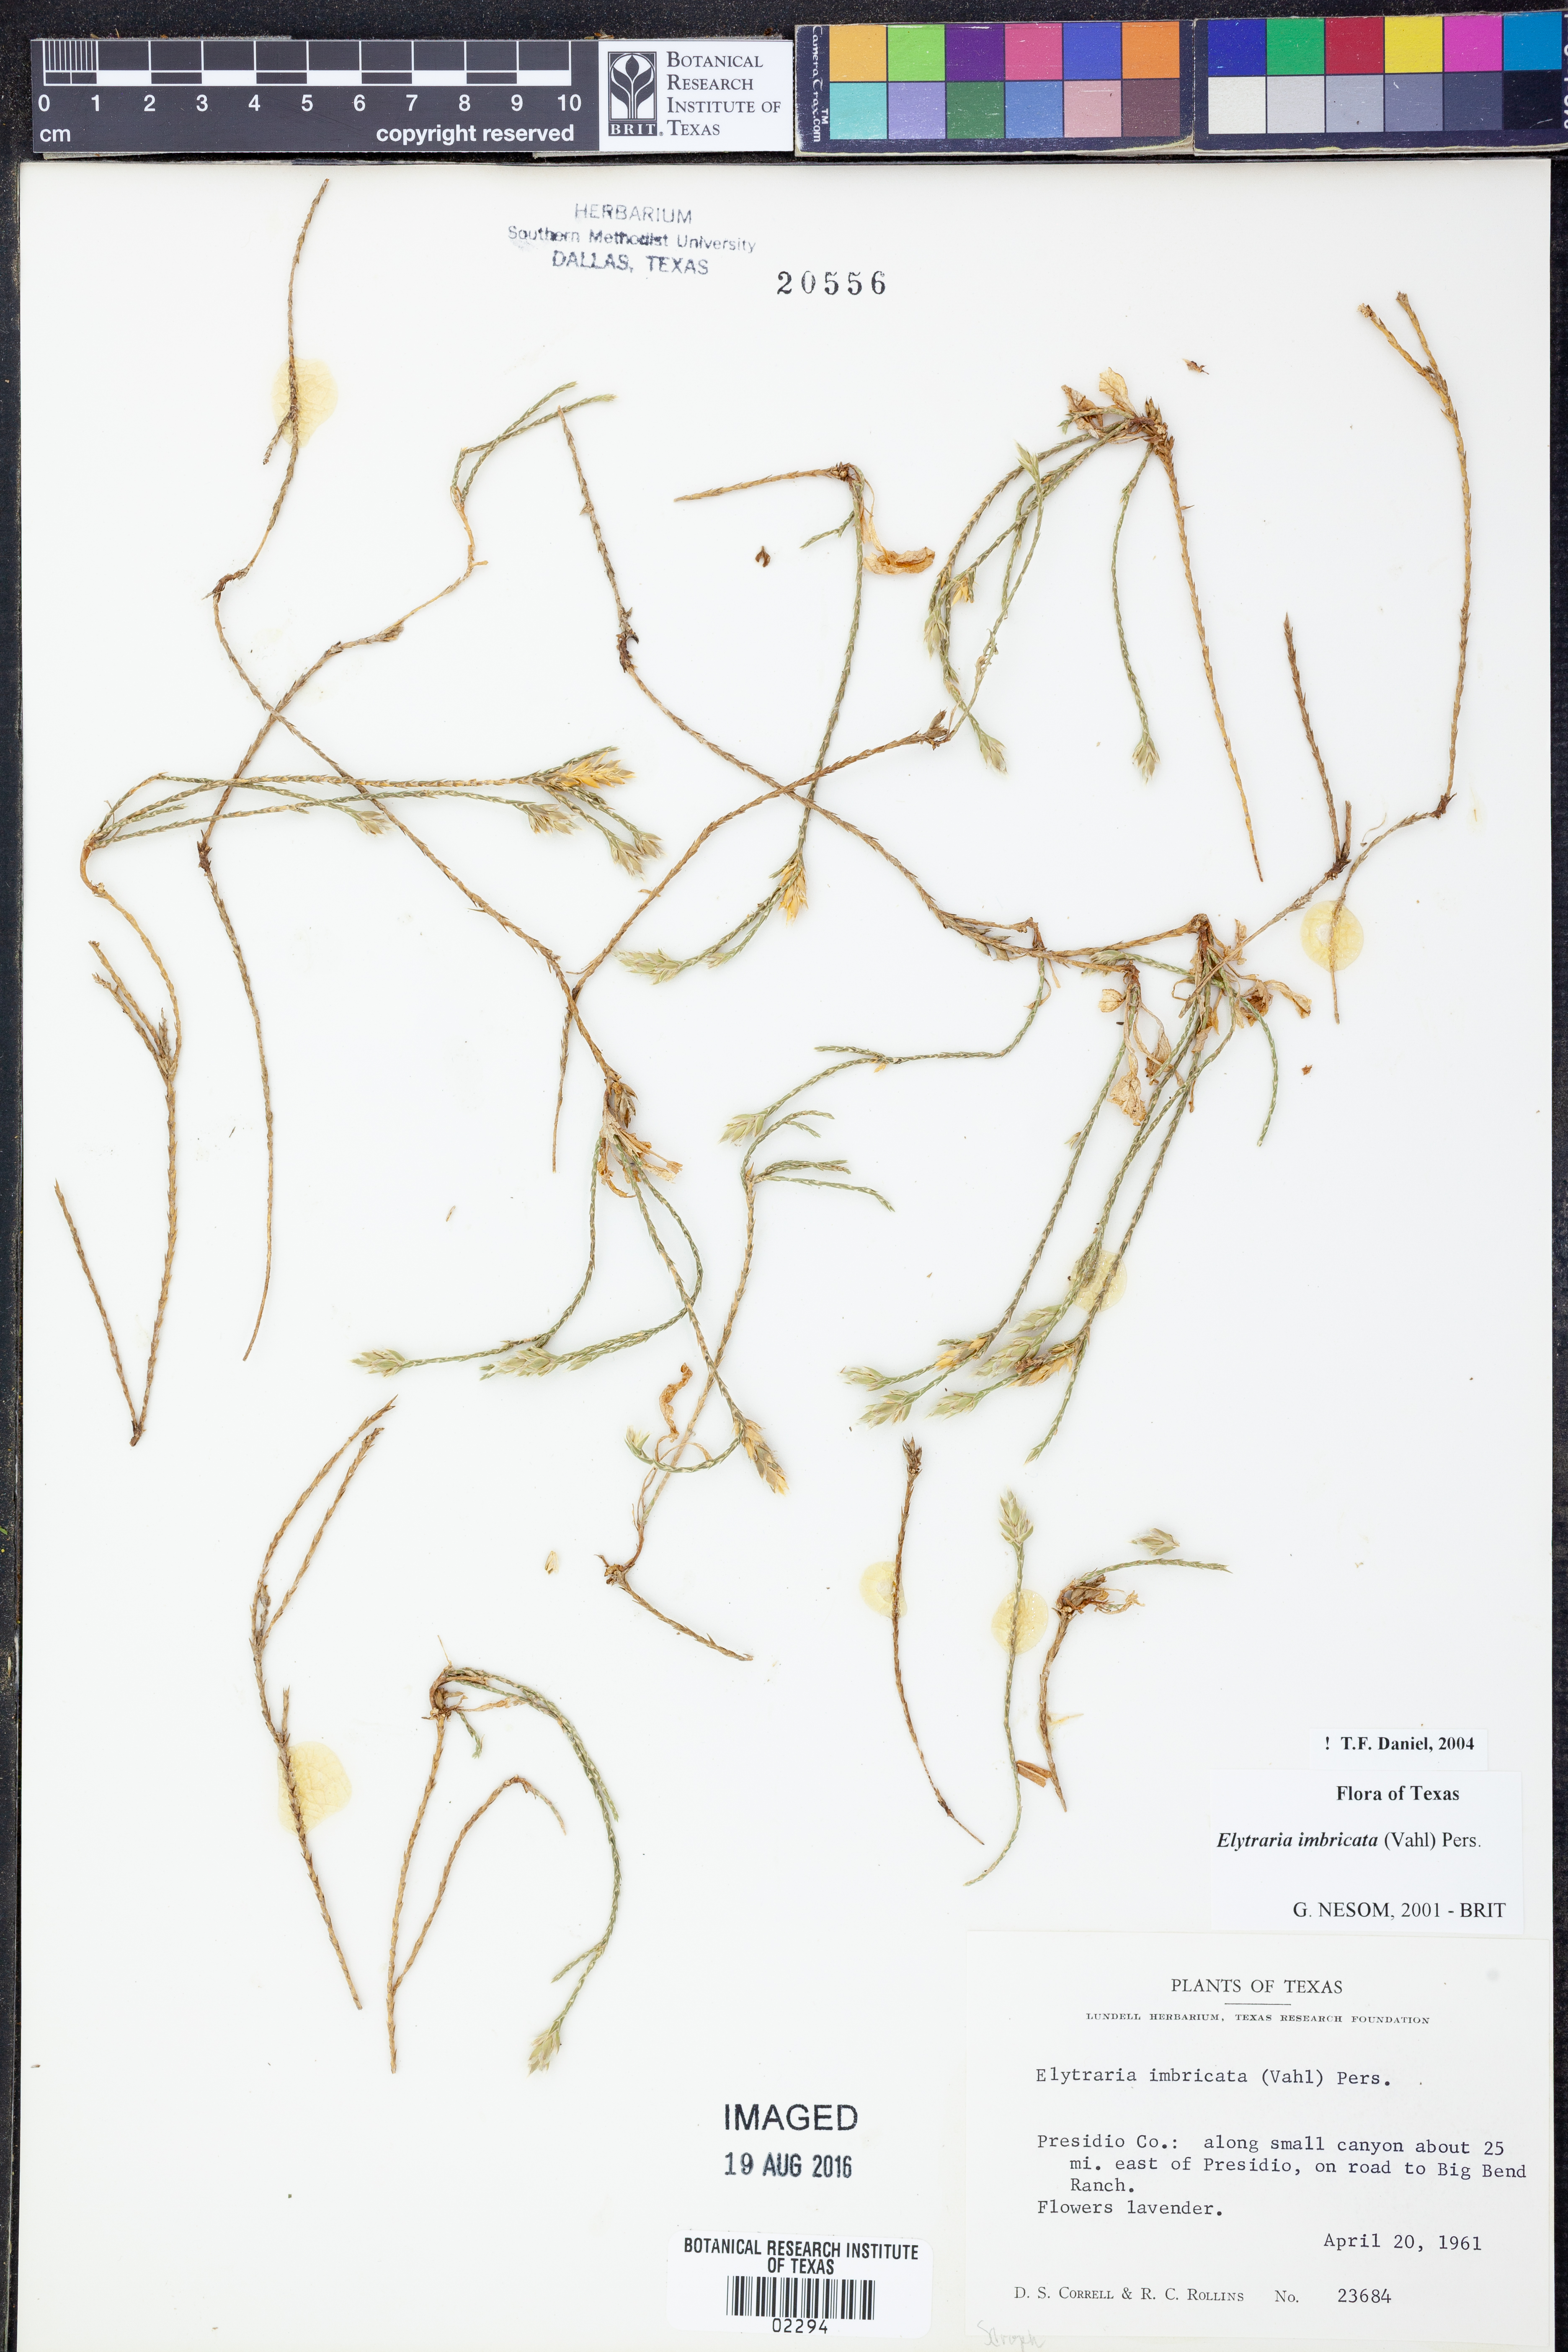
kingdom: Plantae
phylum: Tracheophyta
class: Magnoliopsida
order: Lamiales
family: Acanthaceae
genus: Elytraria
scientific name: Elytraria imbricata
